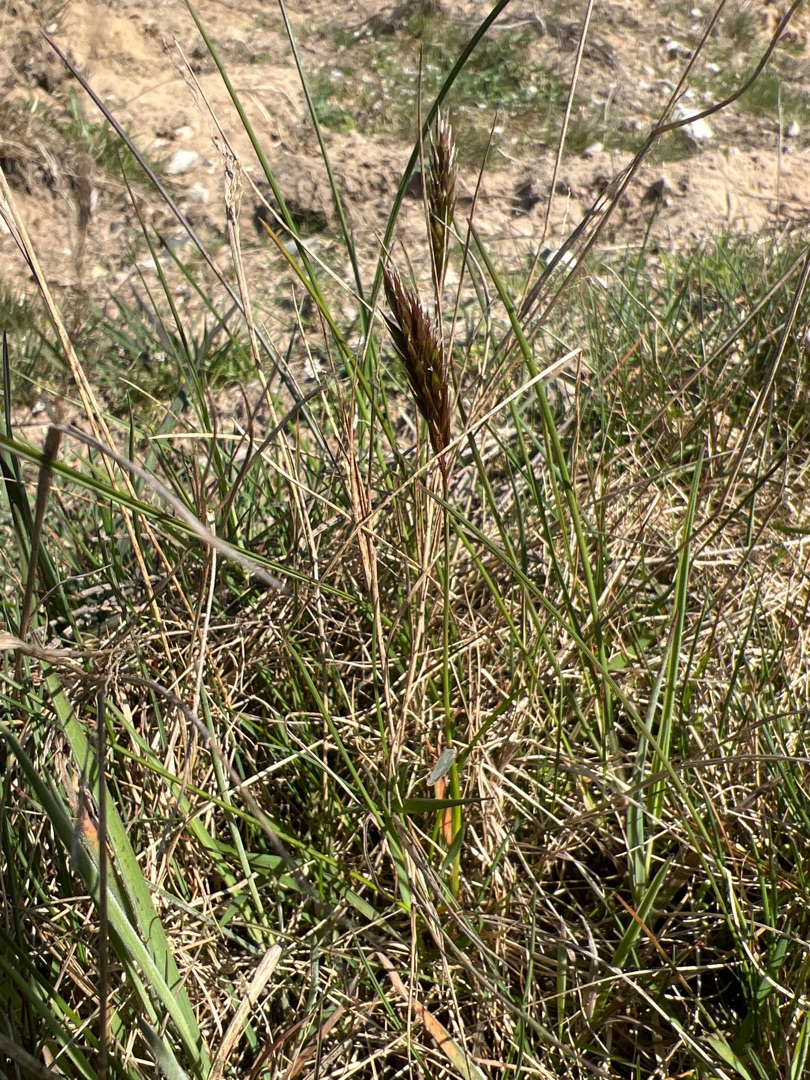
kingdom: Plantae
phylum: Tracheophyta
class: Liliopsida
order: Poales
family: Poaceae
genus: Anthoxanthum
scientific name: Anthoxanthum odoratum
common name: Vellugtende gulaks
